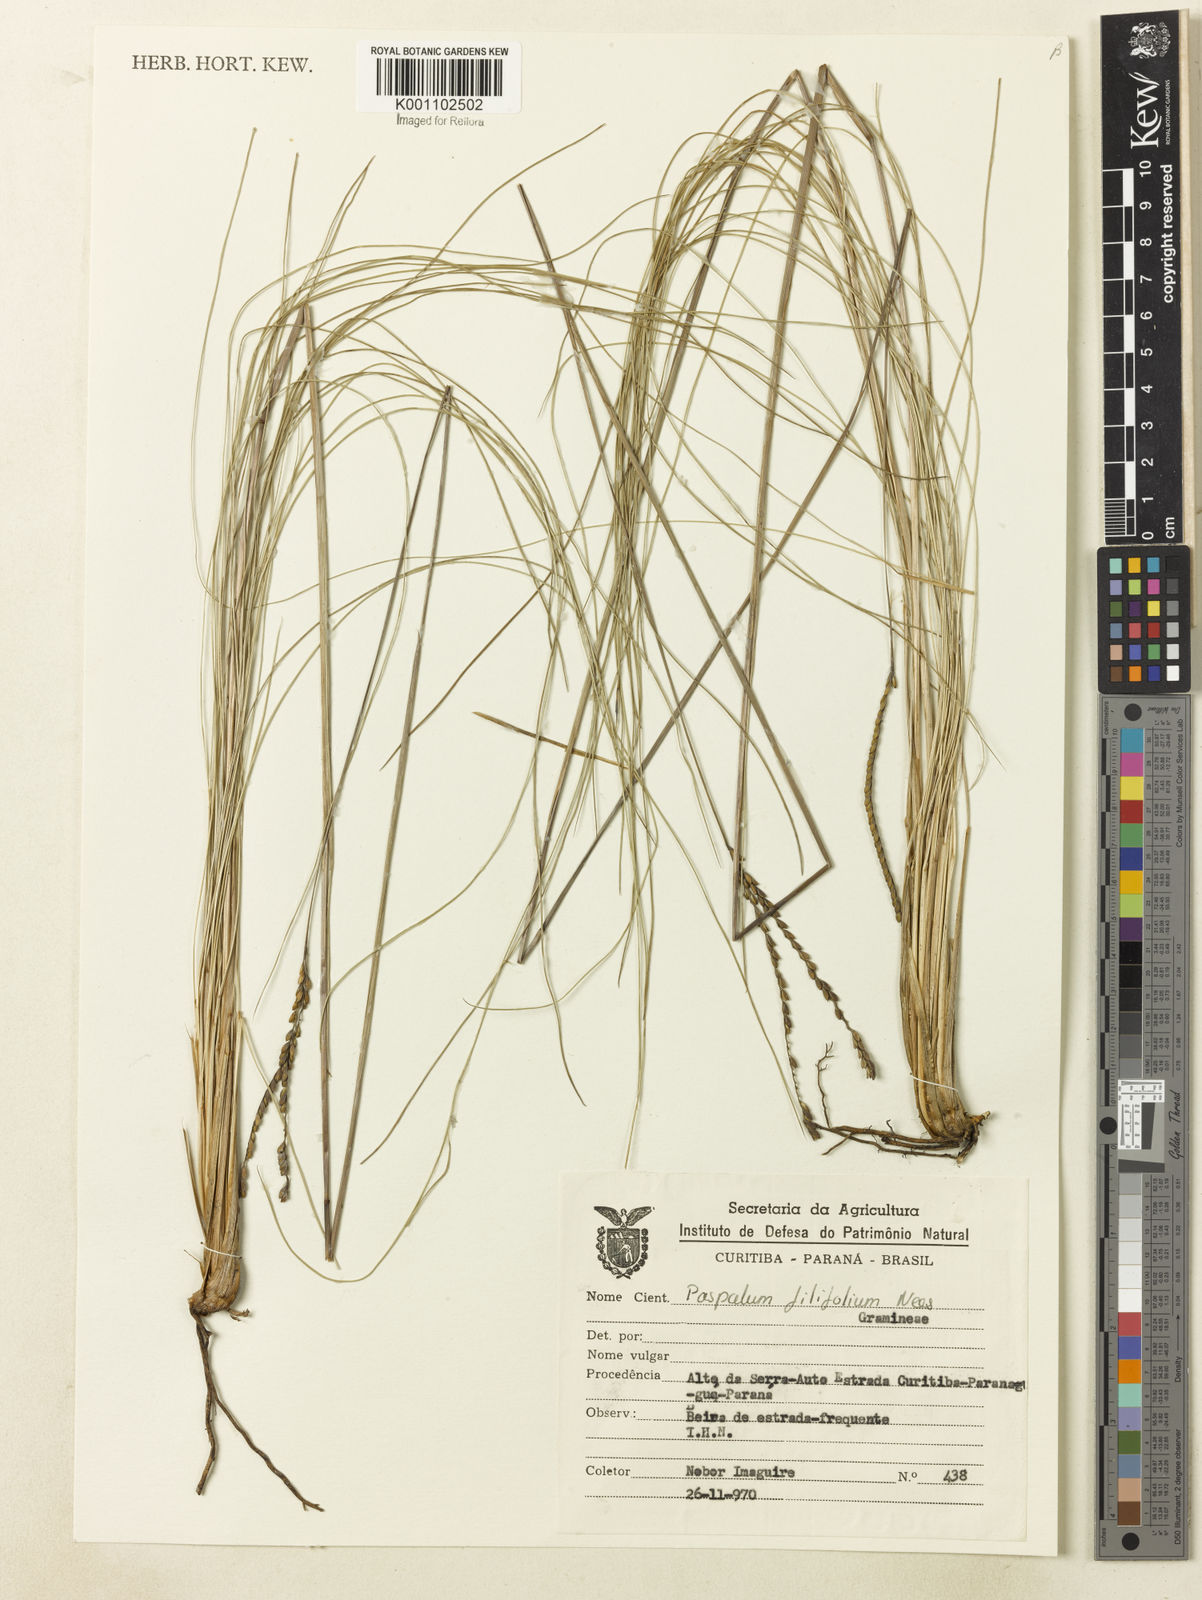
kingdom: Plantae
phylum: Tracheophyta
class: Liliopsida
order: Poales
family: Poaceae
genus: Paspalum
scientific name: Paspalum filifolium
